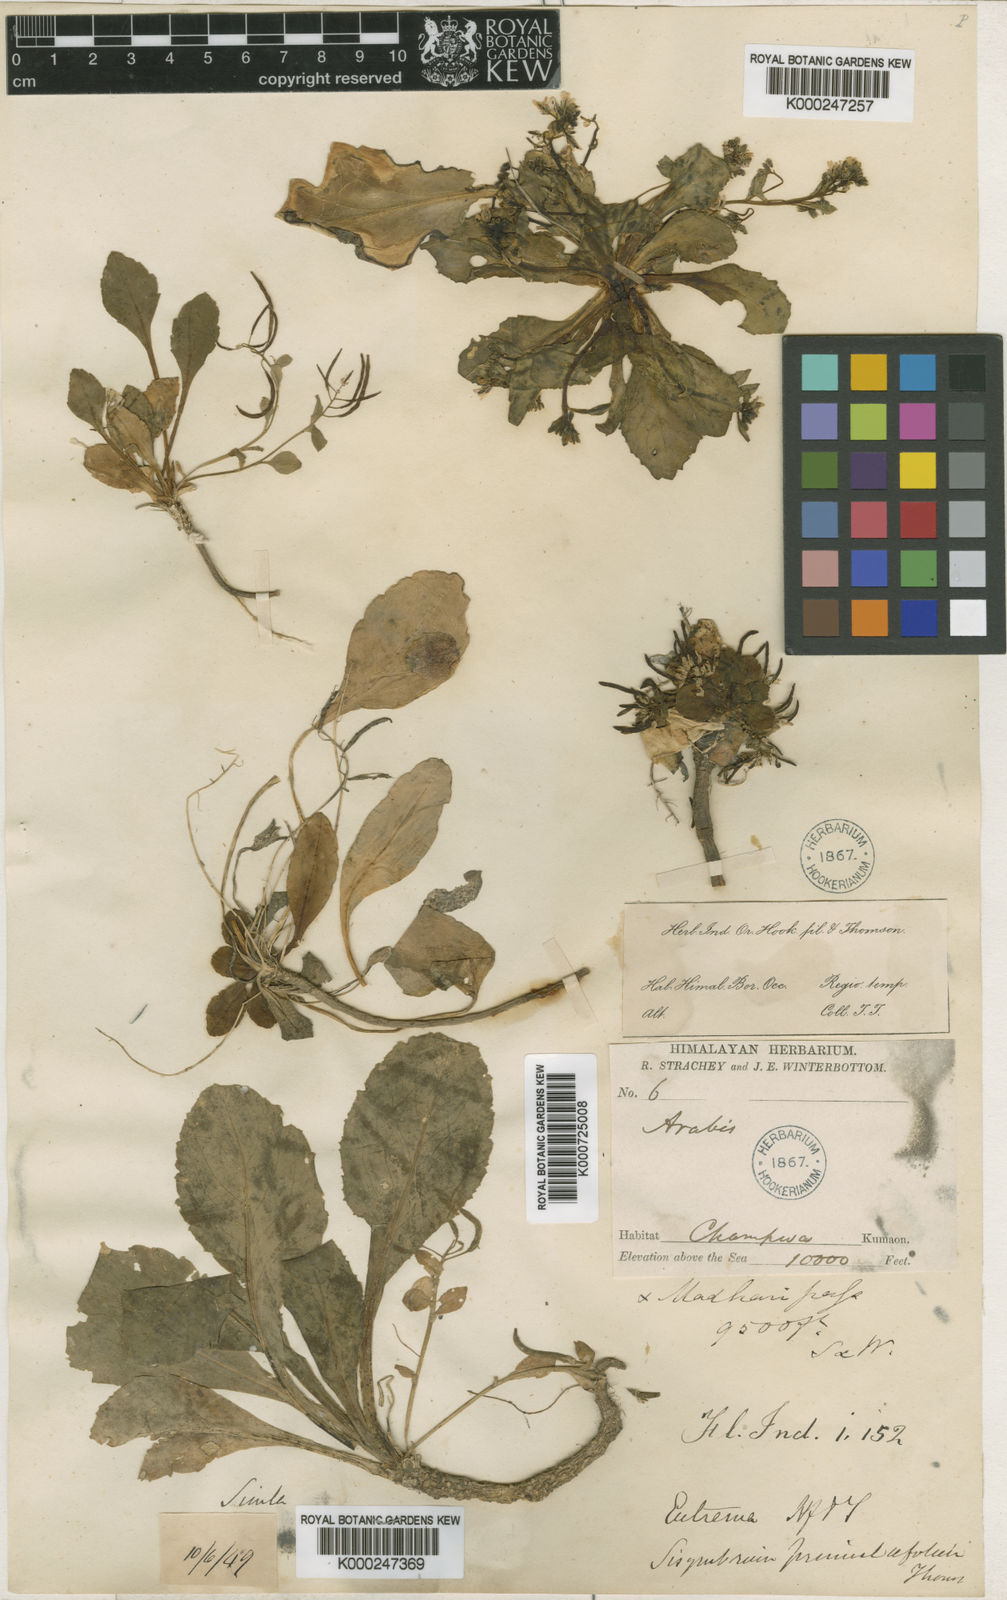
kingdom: Plantae
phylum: Tracheophyta
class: Magnoliopsida
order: Brassicales
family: Brassicaceae
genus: Arcyosperma
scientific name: Arcyosperma primulifolium
